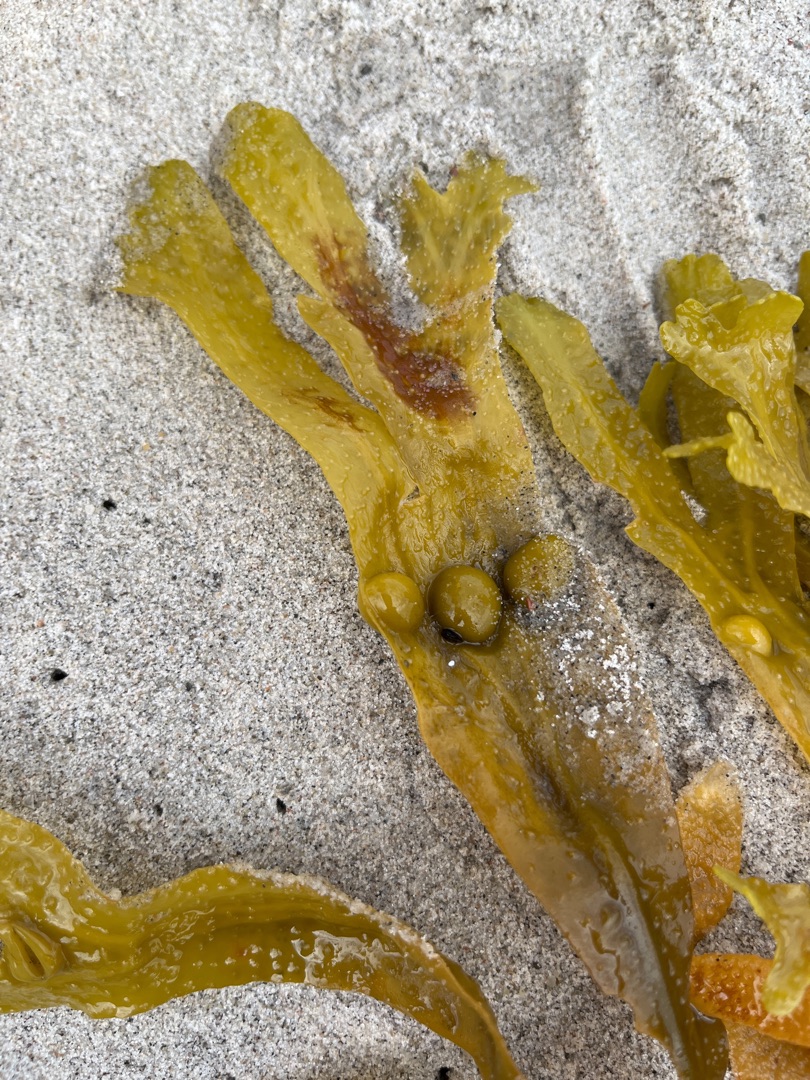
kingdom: Chromista
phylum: Ochrophyta
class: Phaeophyceae
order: Fucales
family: Fucaceae
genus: Fucus
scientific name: Fucus vesiculosus
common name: Blæretang
